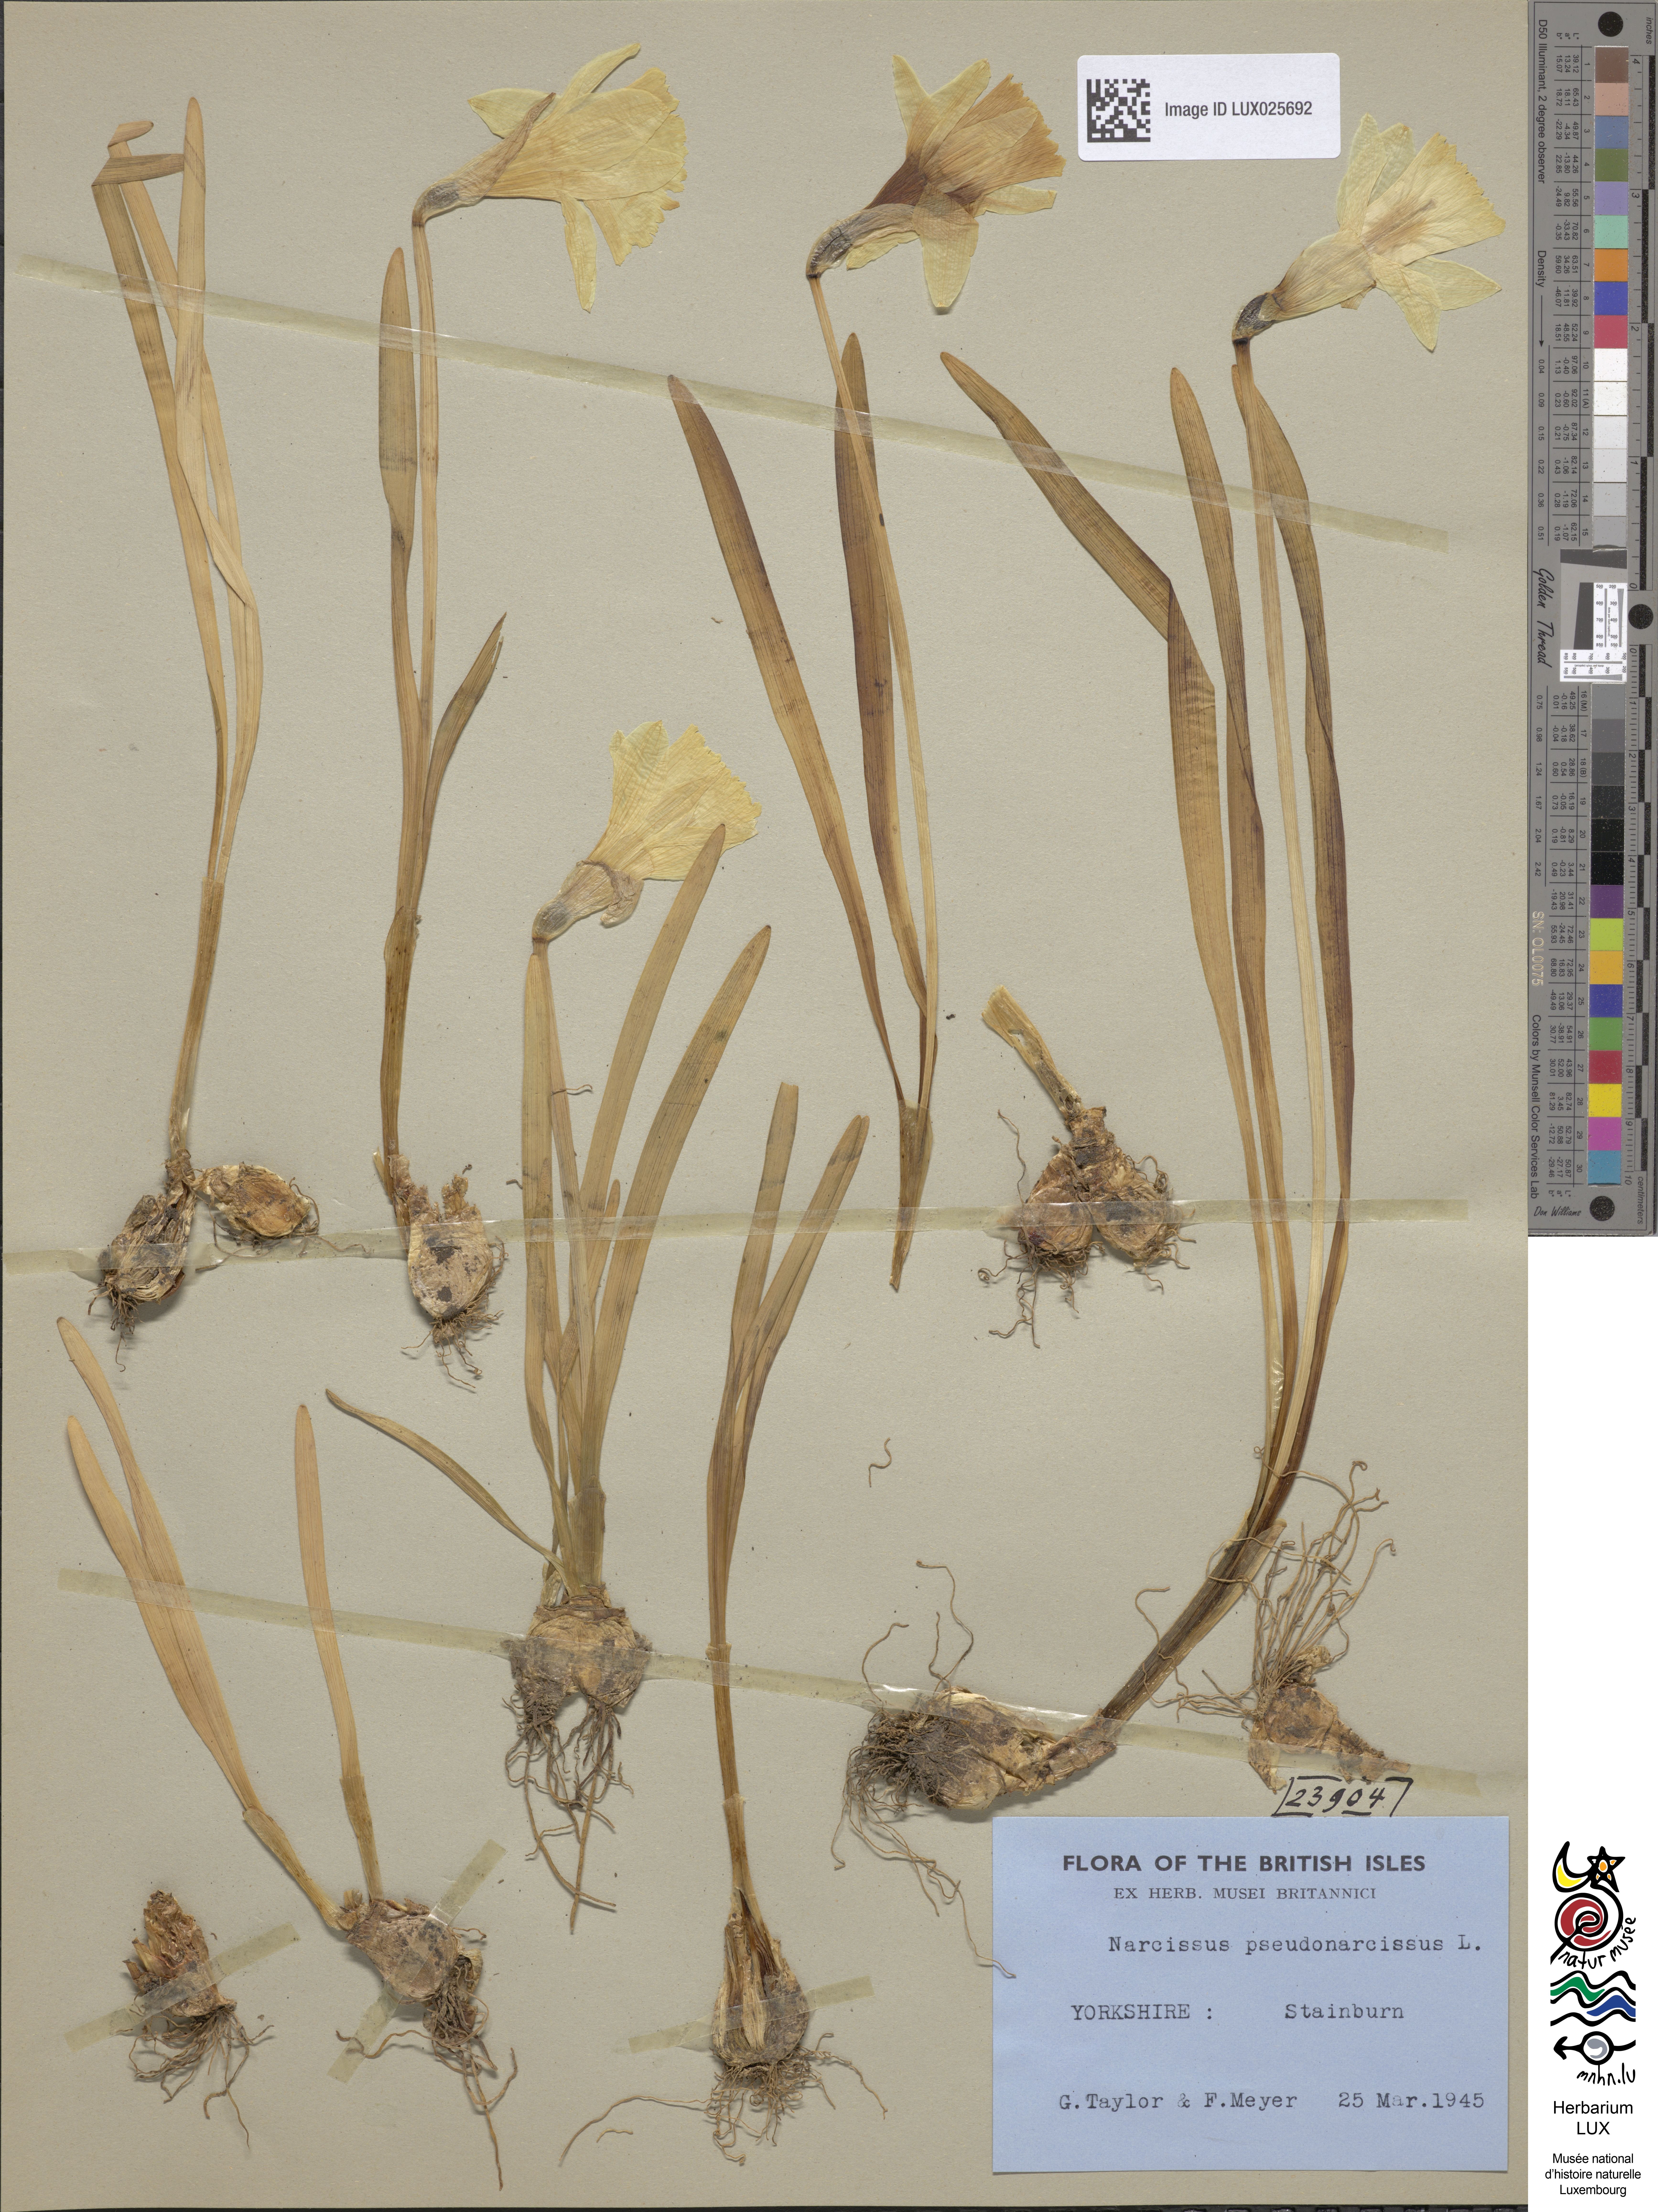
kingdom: Plantae
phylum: Tracheophyta
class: Liliopsida
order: Asparagales
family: Amaryllidaceae
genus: Narcissus
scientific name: Narcissus pseudonarcissus
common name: Daffodil
